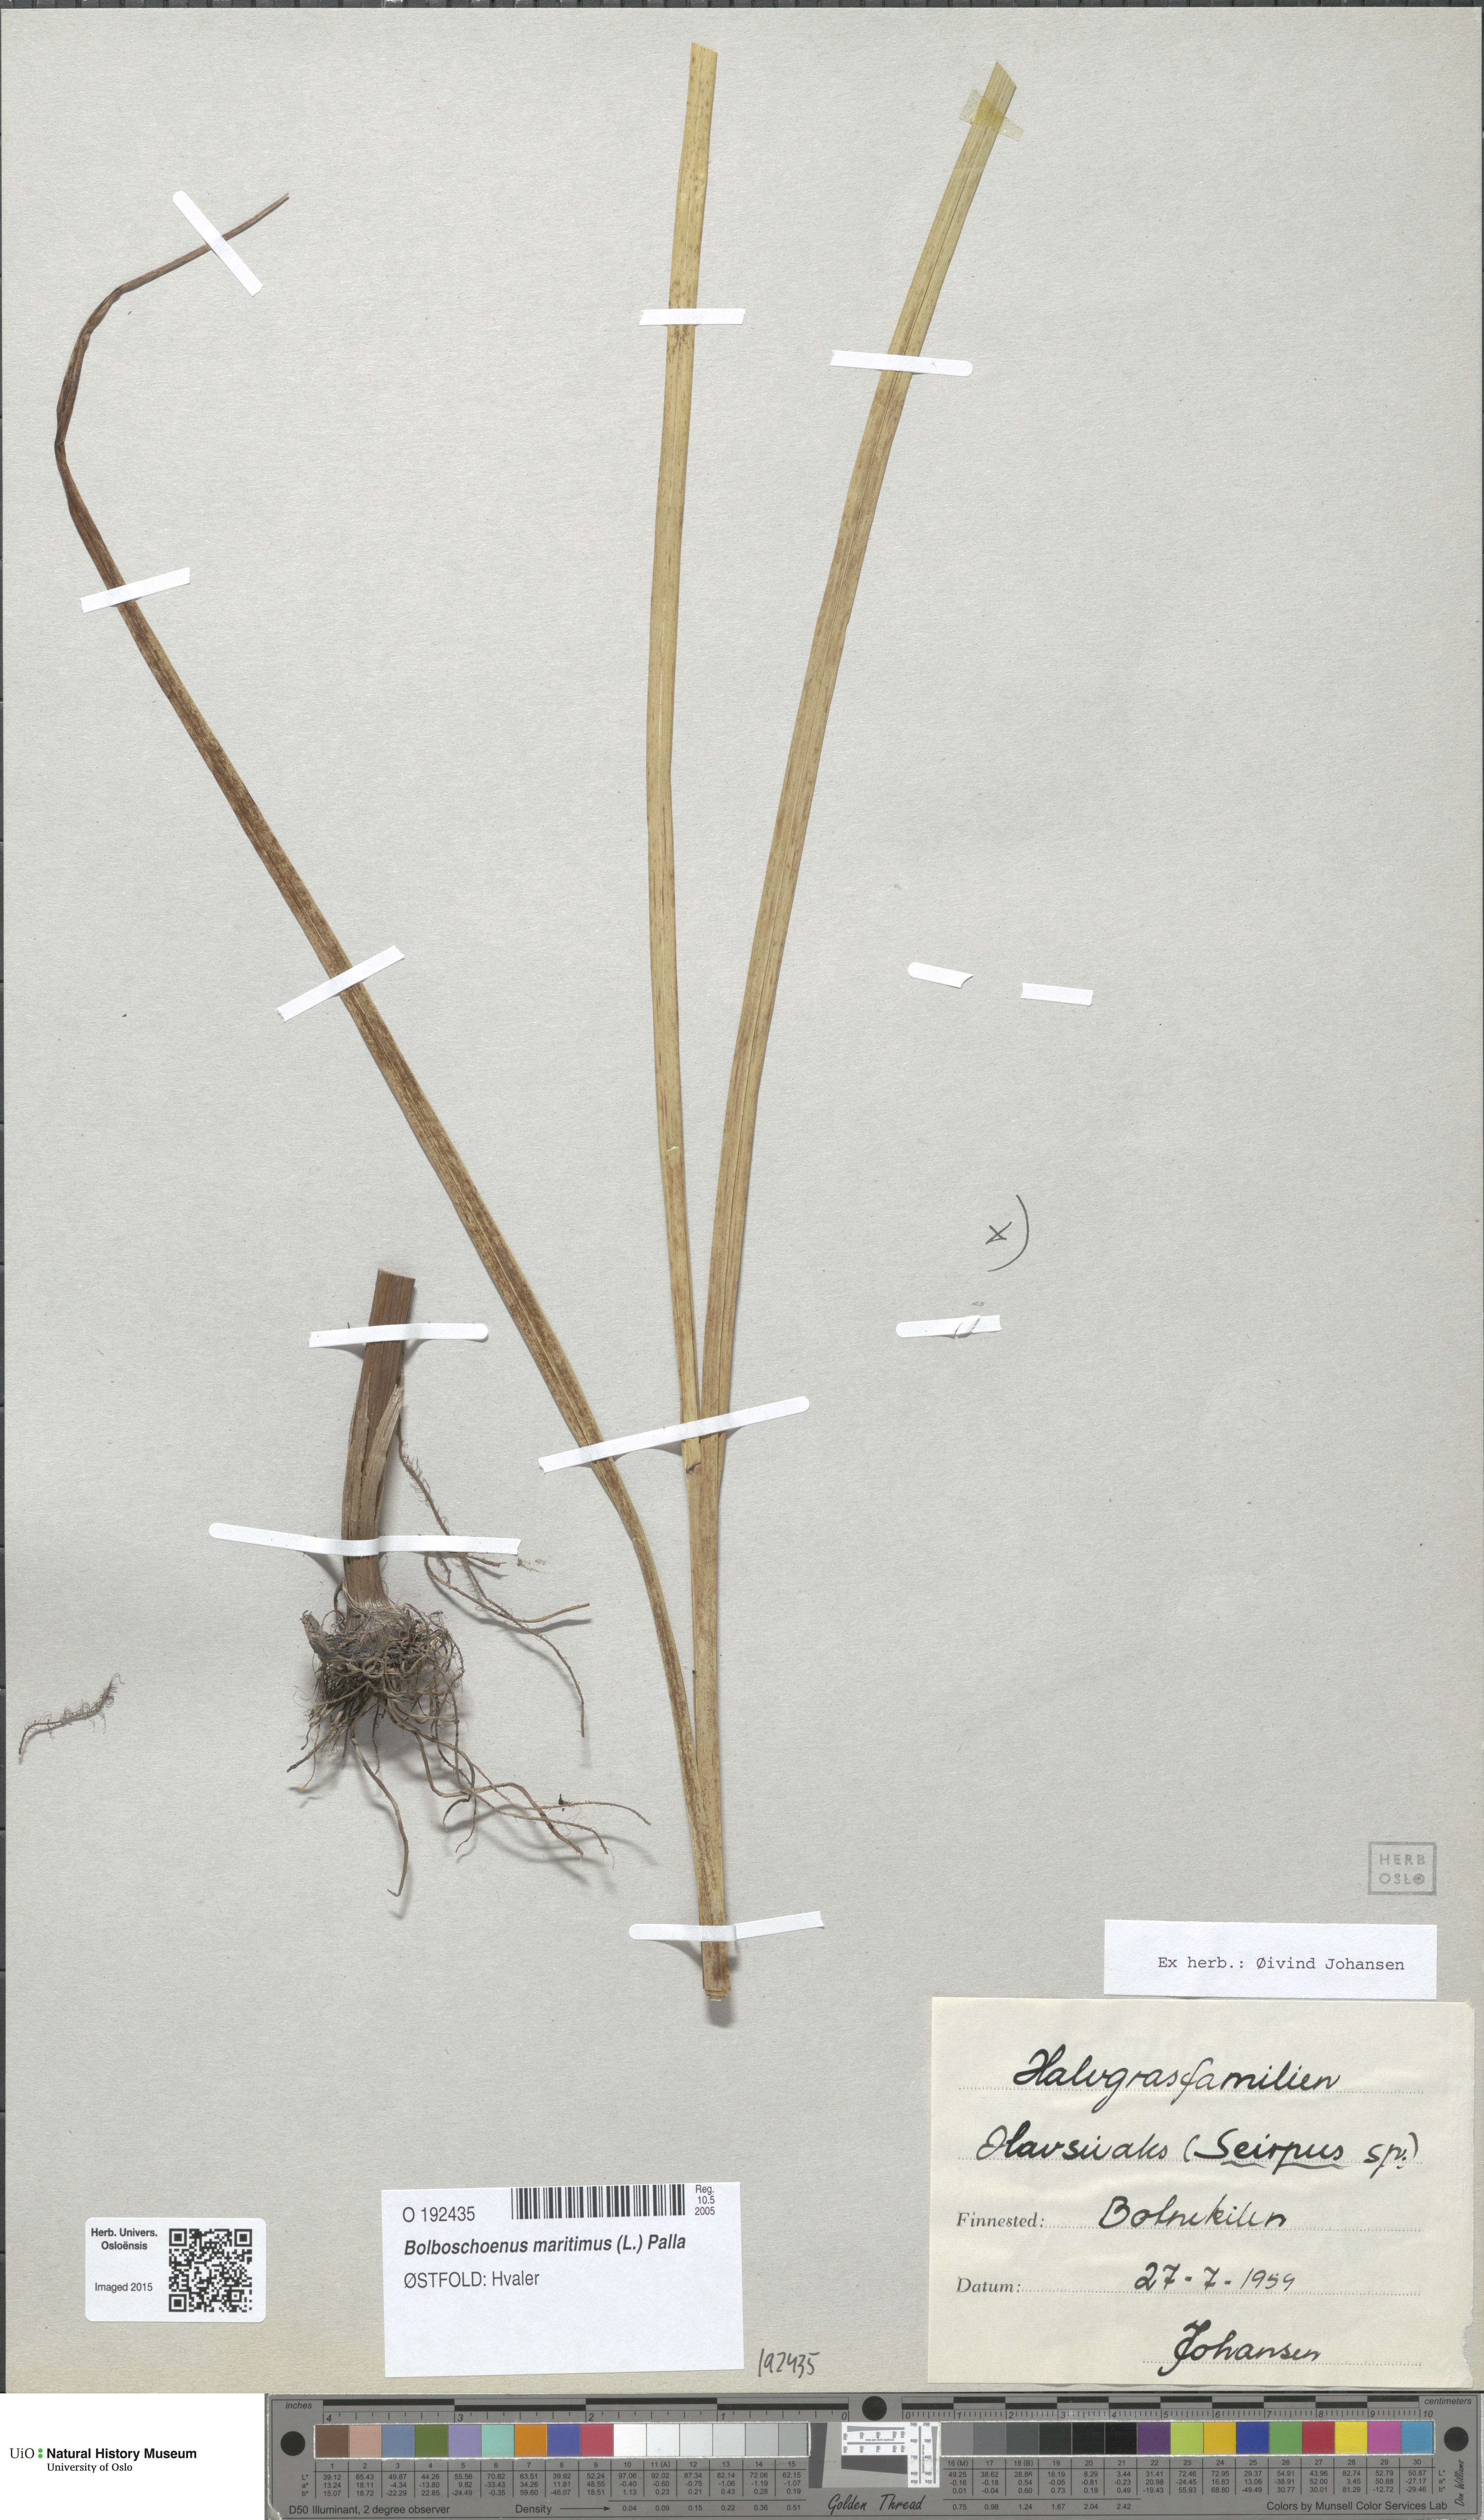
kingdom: Plantae
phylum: Tracheophyta
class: Liliopsida
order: Poales
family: Cyperaceae
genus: Bolboschoenus
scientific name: Bolboschoenus maritimus
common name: Sea club-rush
